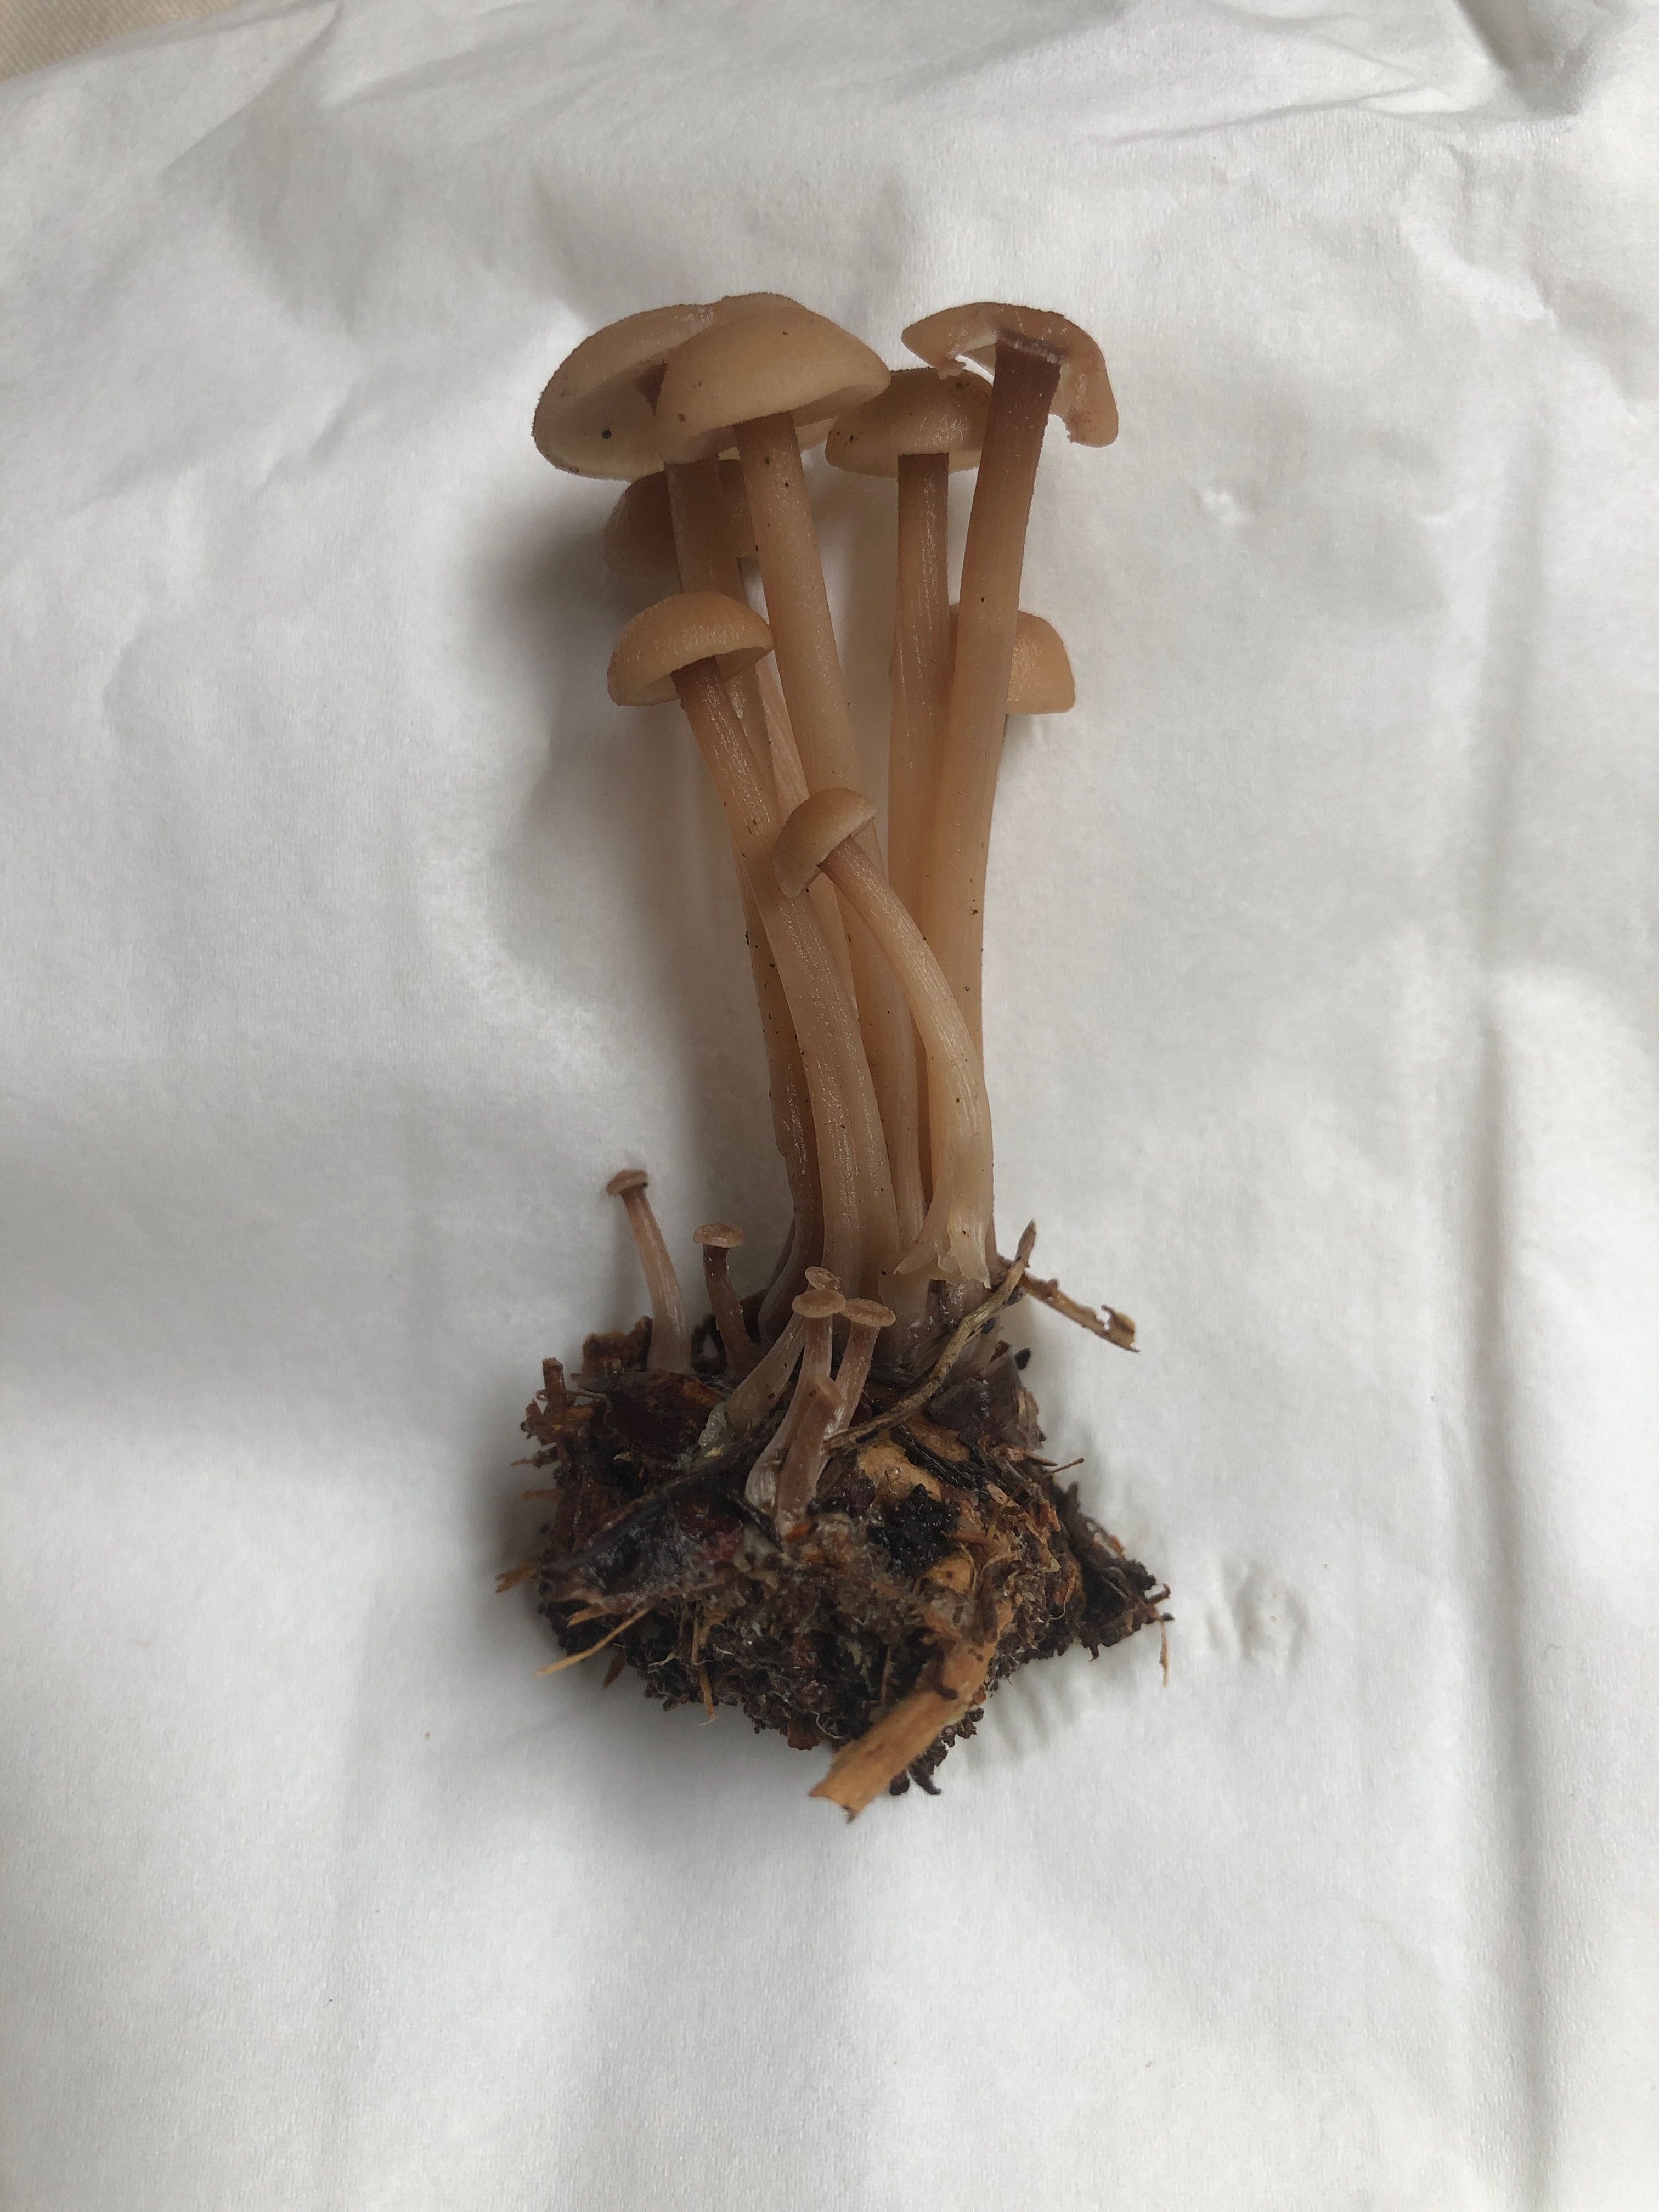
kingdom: Fungi
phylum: Basidiomycota
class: Agaricomycetes
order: Agaricales
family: Omphalotaceae
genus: Connopus
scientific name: Connopus acervatus
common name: tue-fladhat
